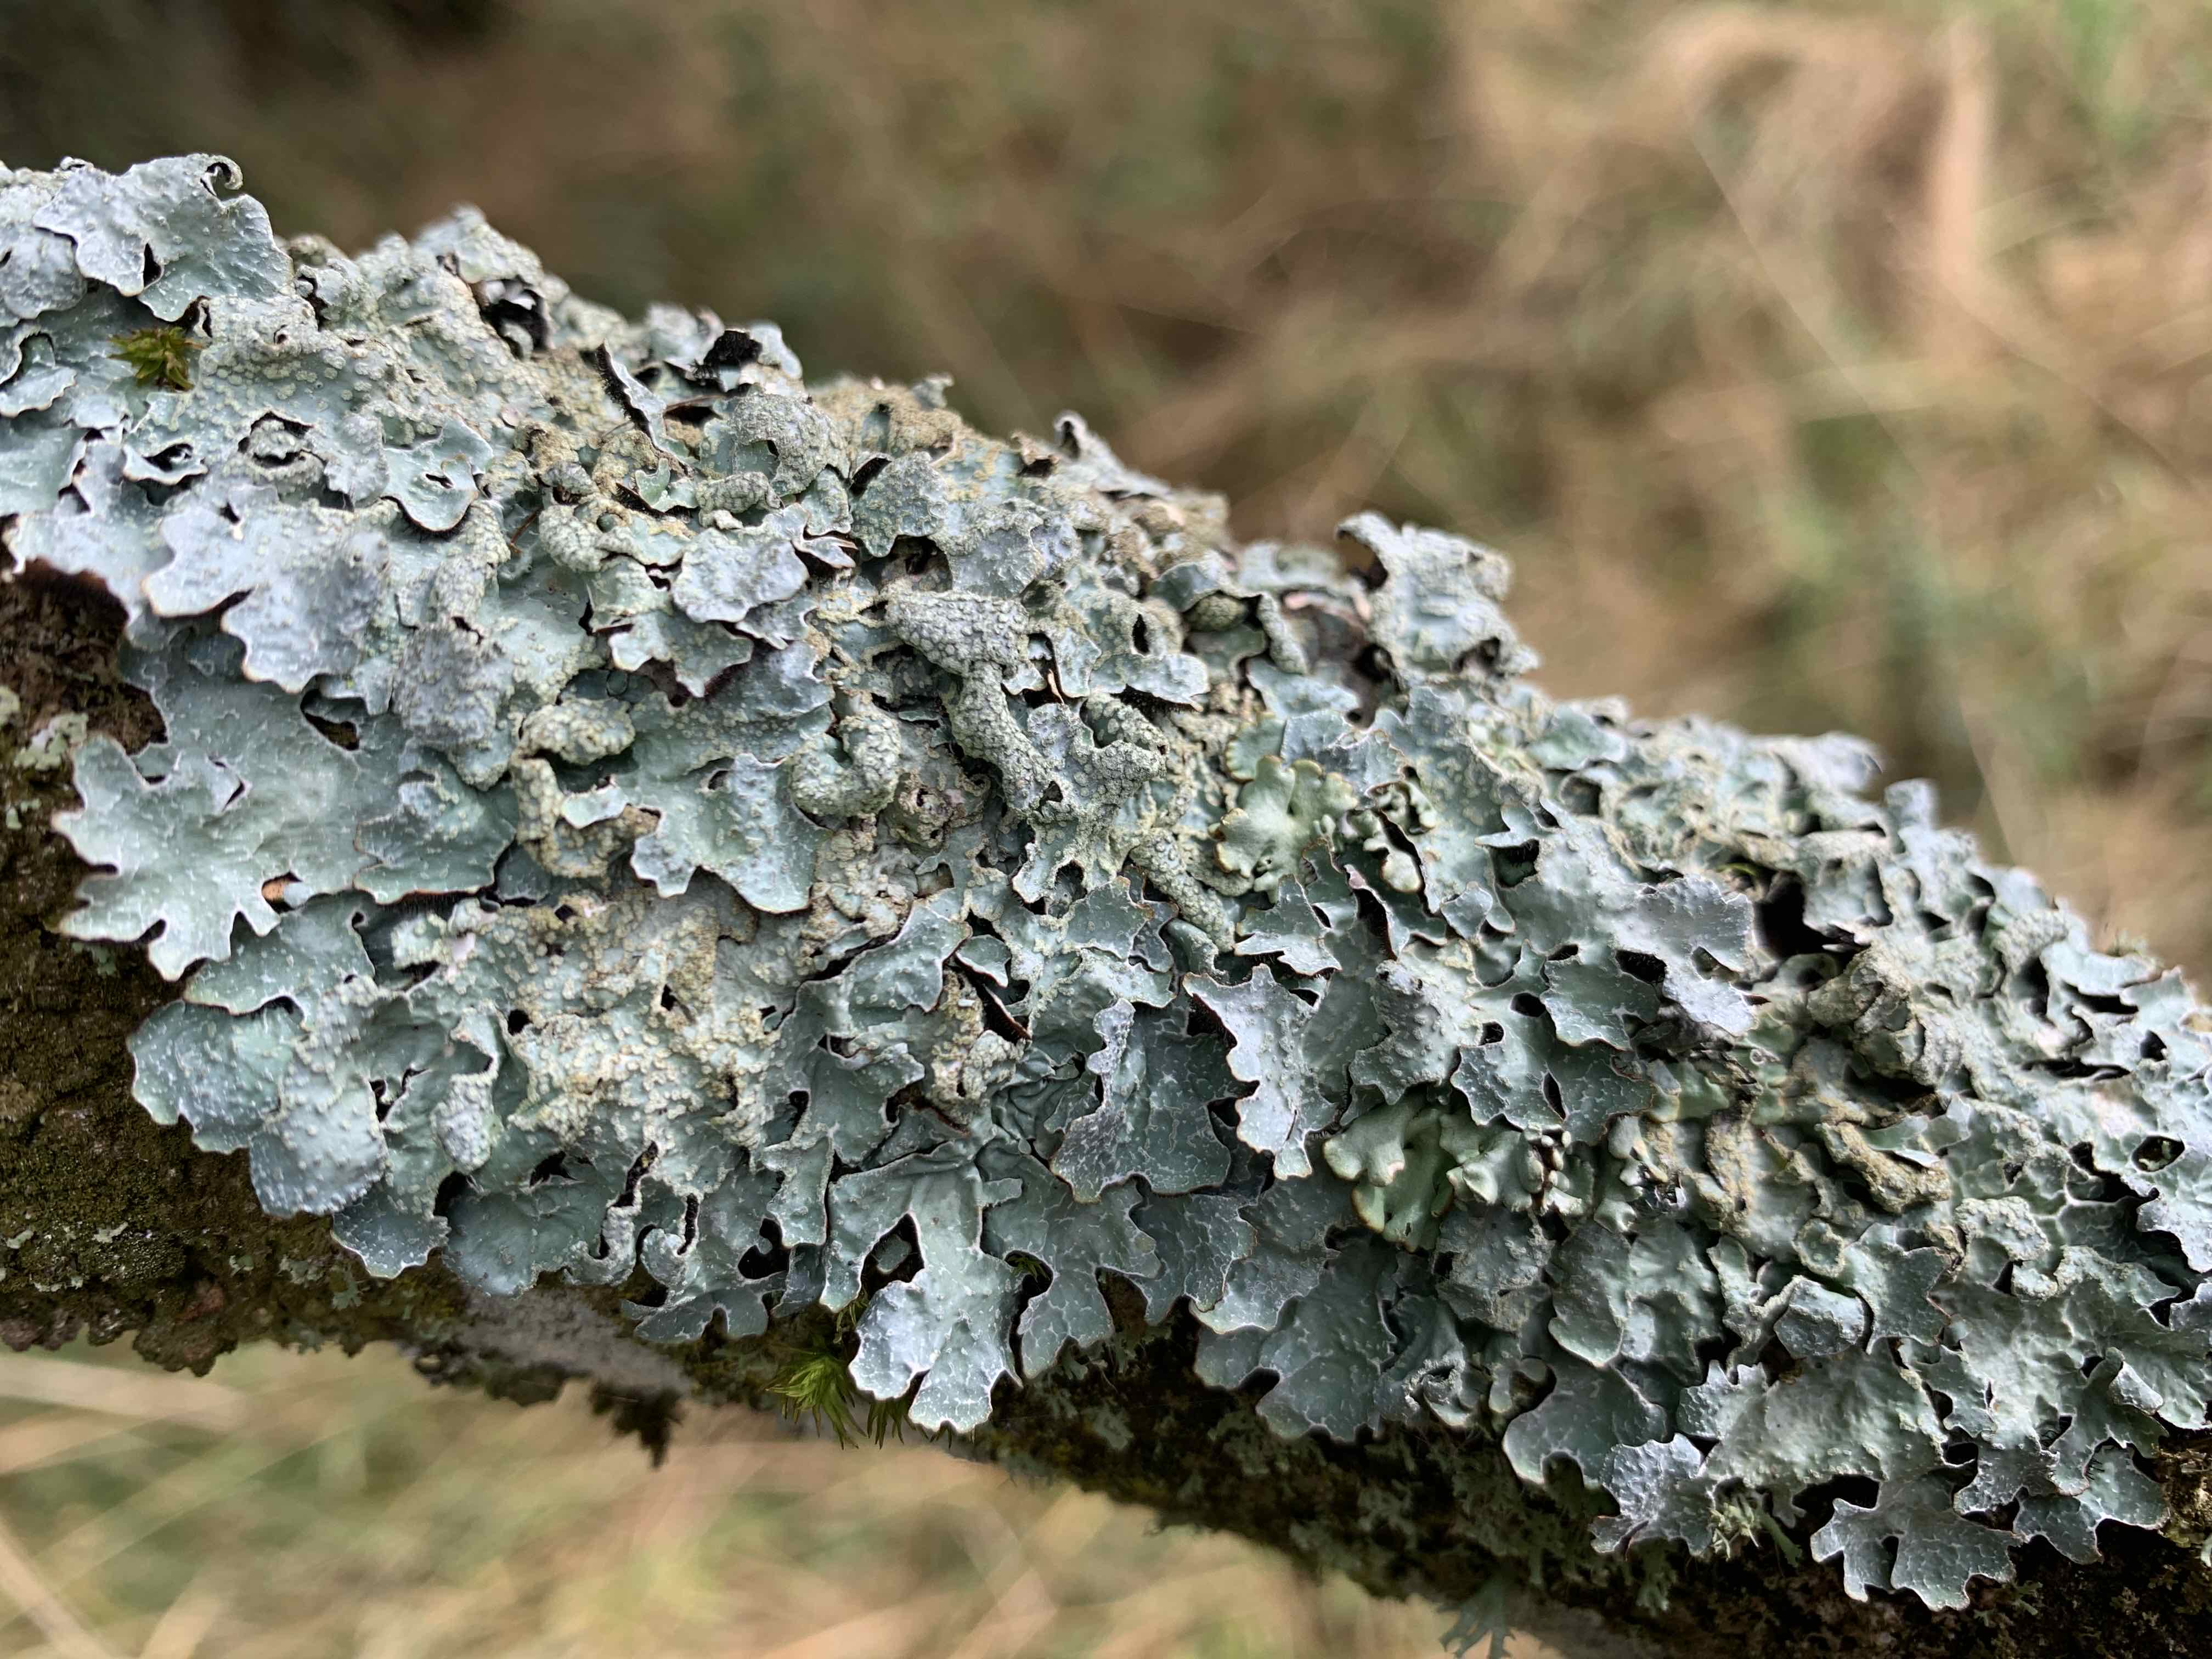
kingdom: Fungi
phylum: Ascomycota
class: Lecanoromycetes
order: Lecanorales
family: Parmeliaceae
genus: Parmelia
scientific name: Parmelia sulcata
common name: rynket skållav
